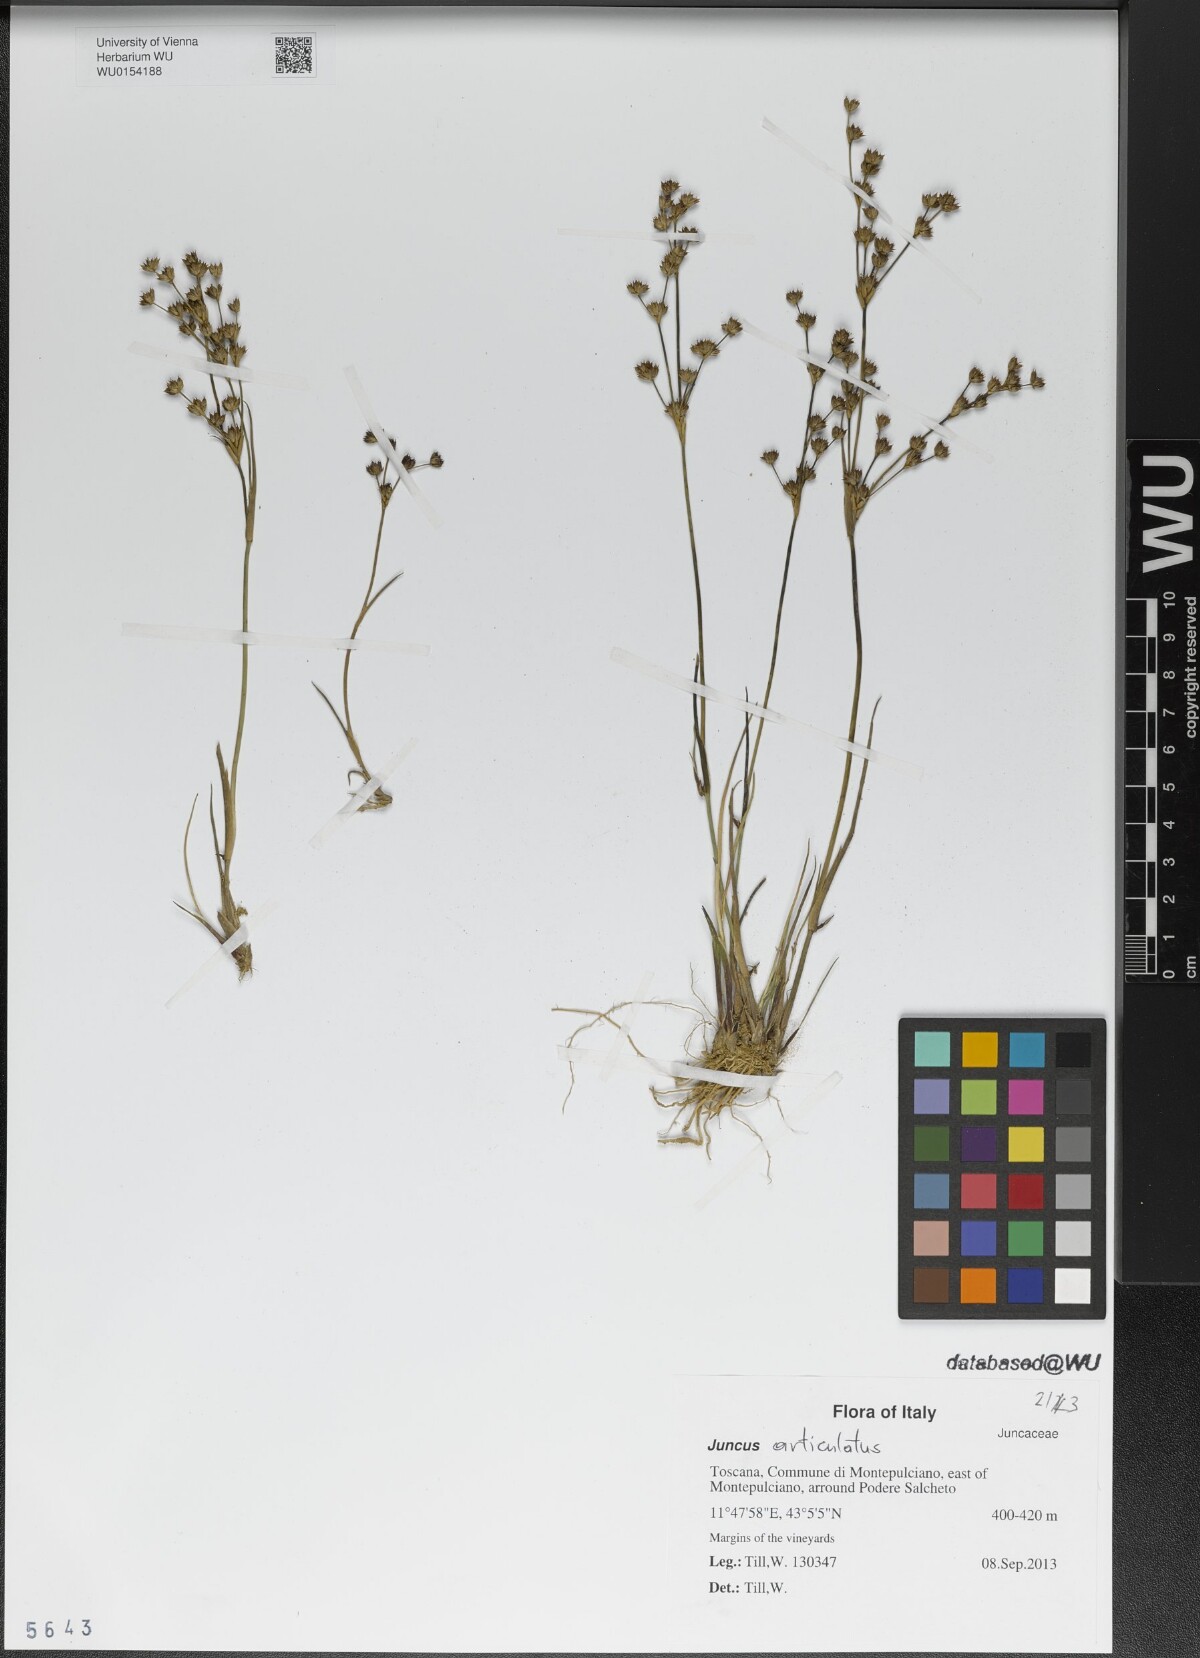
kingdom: Plantae
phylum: Tracheophyta
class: Liliopsida
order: Poales
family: Juncaceae
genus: Juncus
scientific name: Juncus articulatus
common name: Jointed rush
